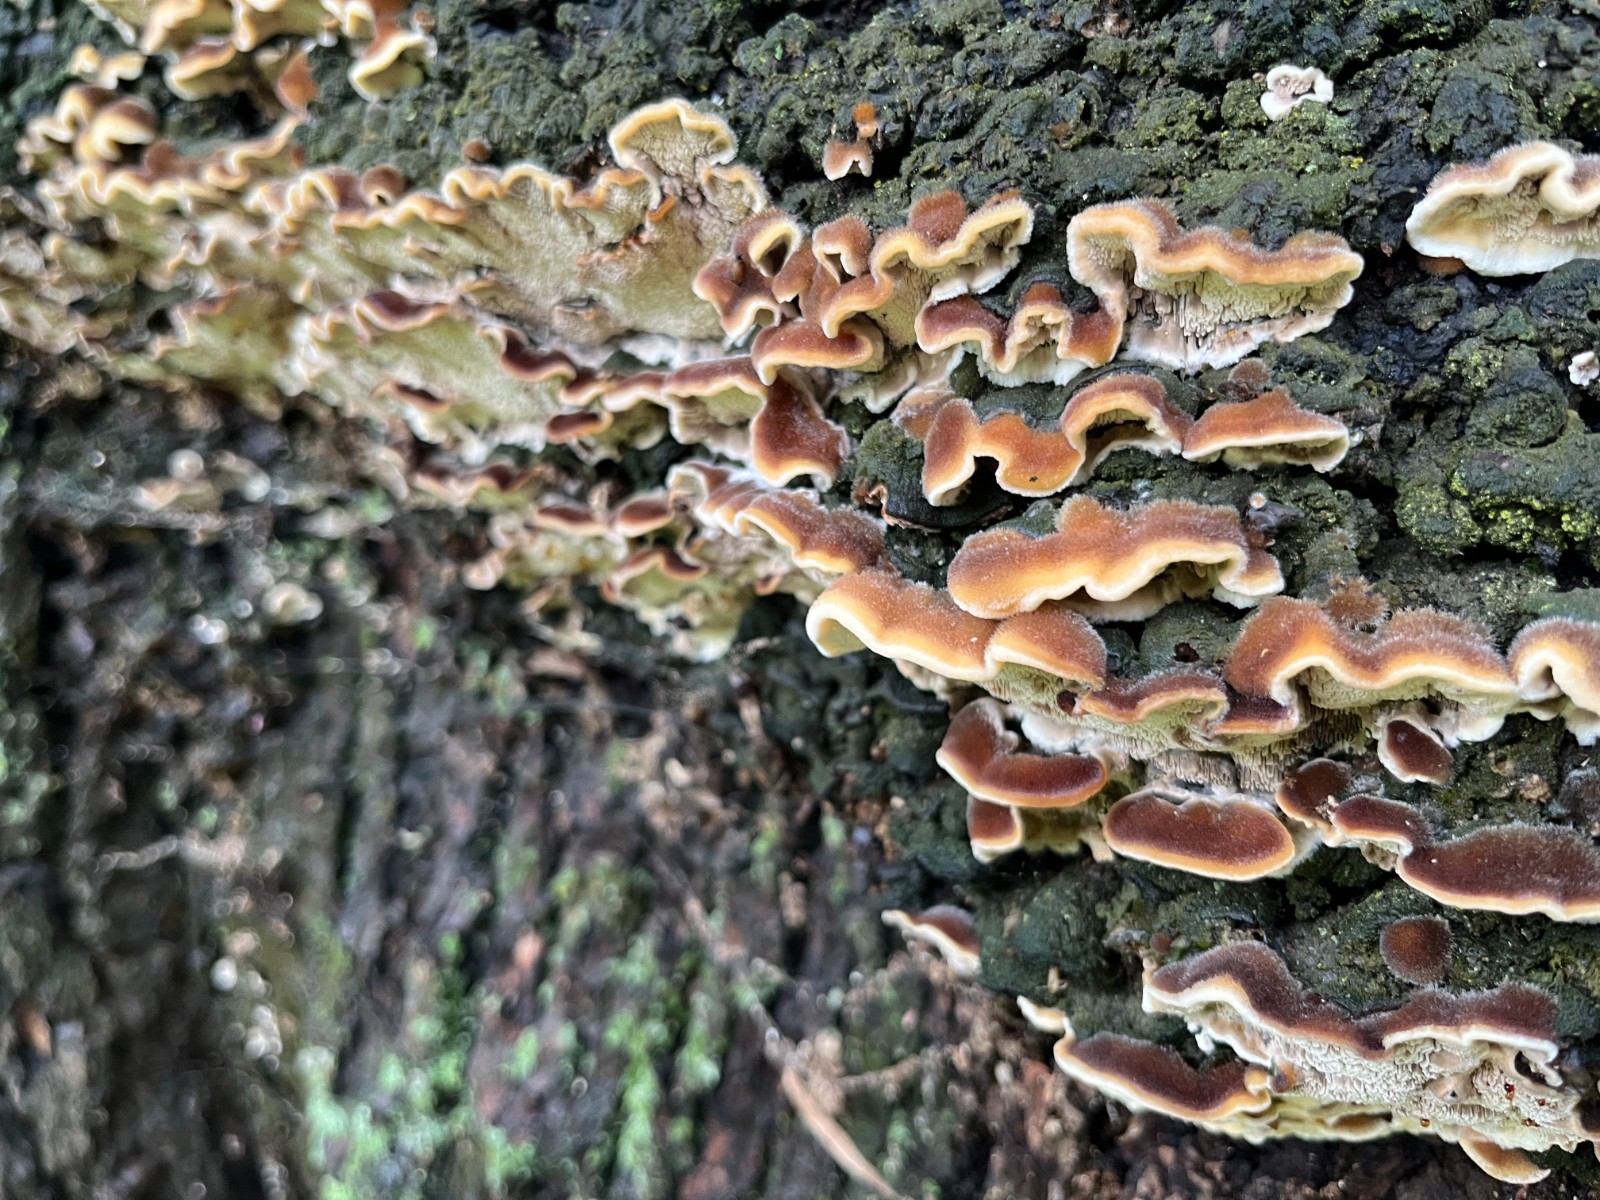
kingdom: Fungi
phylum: Basidiomycota
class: Agaricomycetes
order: Polyporales
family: Polyporaceae
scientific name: Polyporaceae
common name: poresvampfamilien
